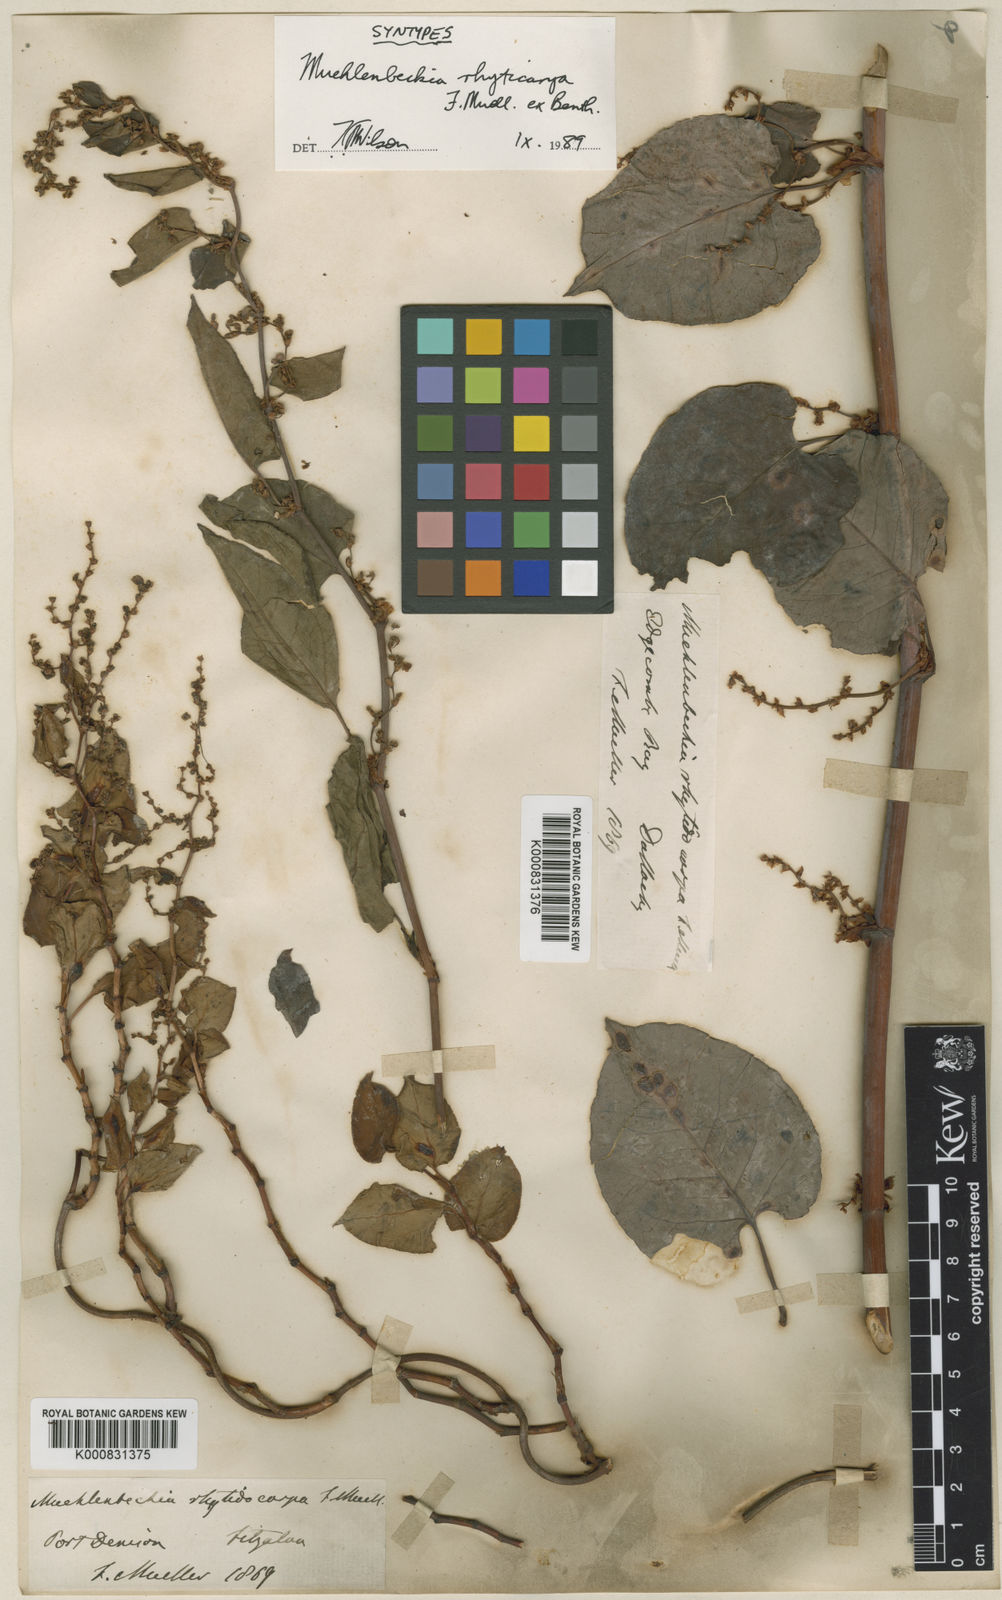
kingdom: Plantae
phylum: Tracheophyta
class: Magnoliopsida
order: Caryophyllales
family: Polygonaceae
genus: Muehlenbeckia
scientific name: Muehlenbeckia
